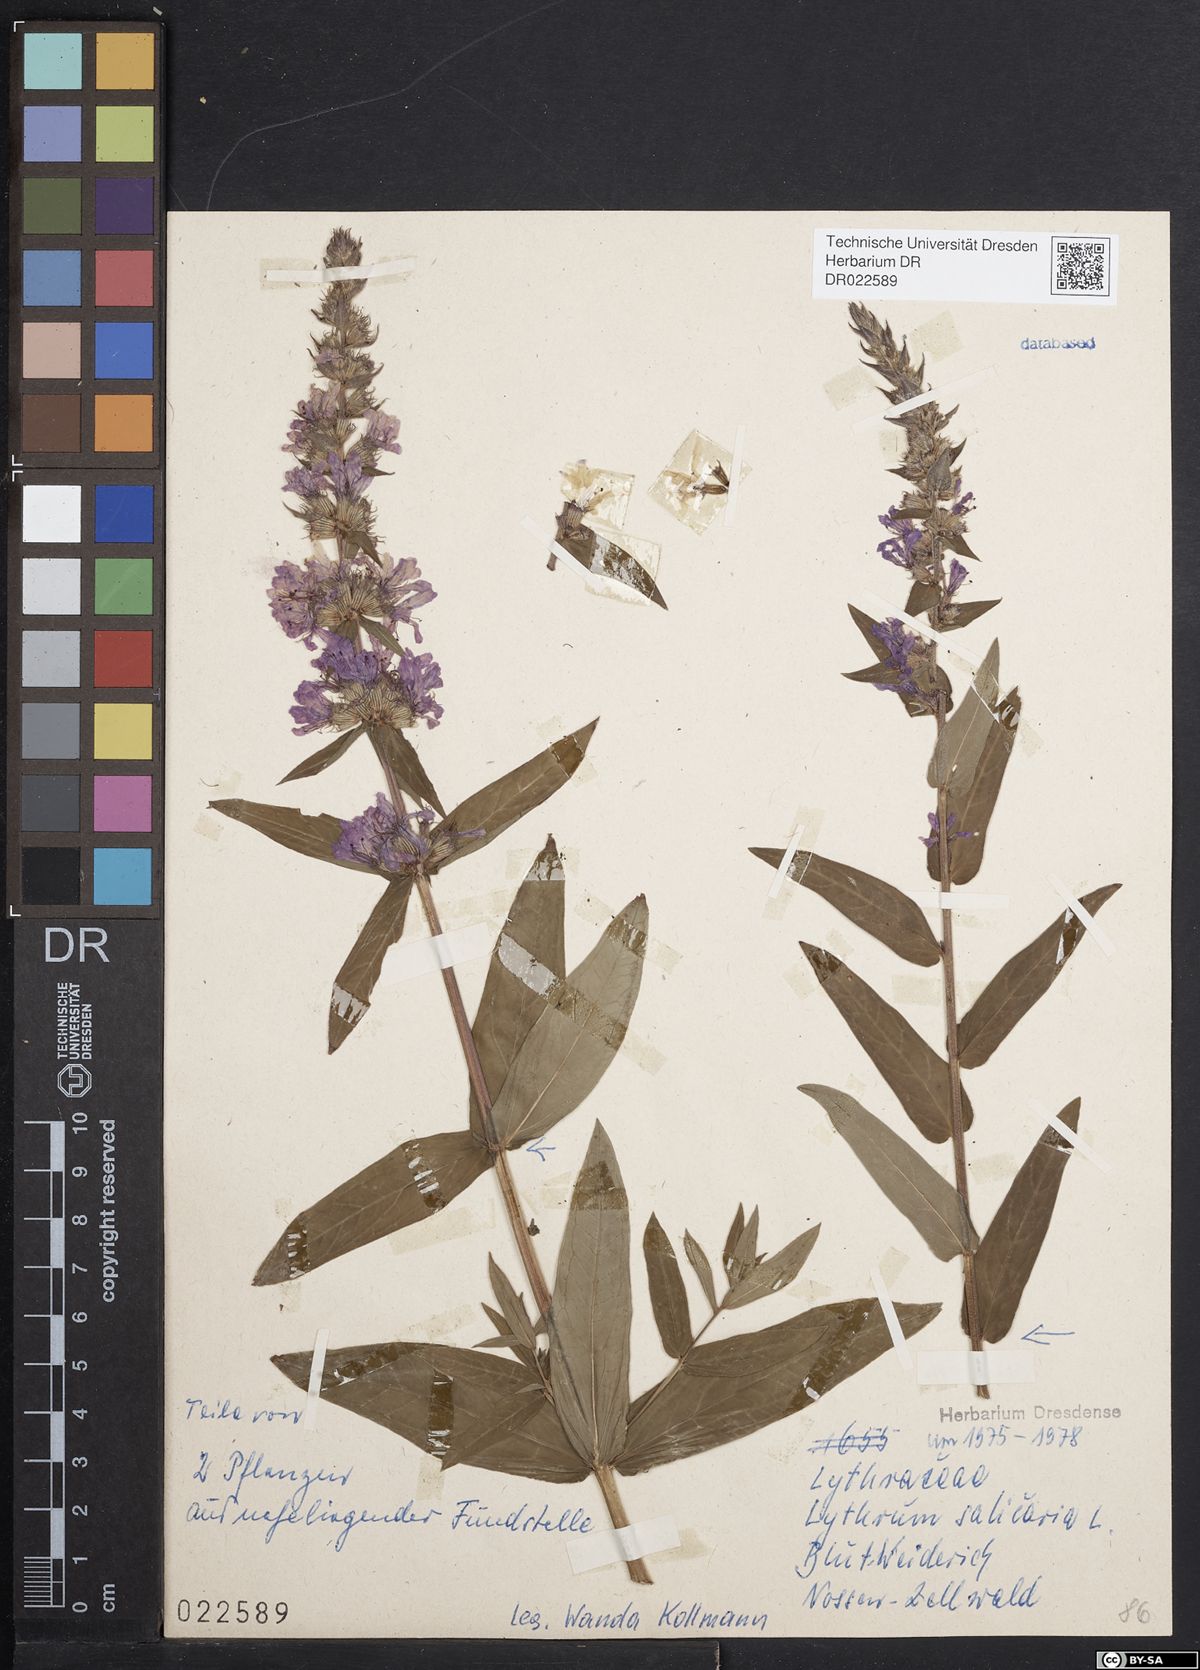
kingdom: Plantae
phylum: Tracheophyta
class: Magnoliopsida
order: Myrtales
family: Lythraceae
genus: Lythrum
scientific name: Lythrum salicaria
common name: Purple loosestrife
